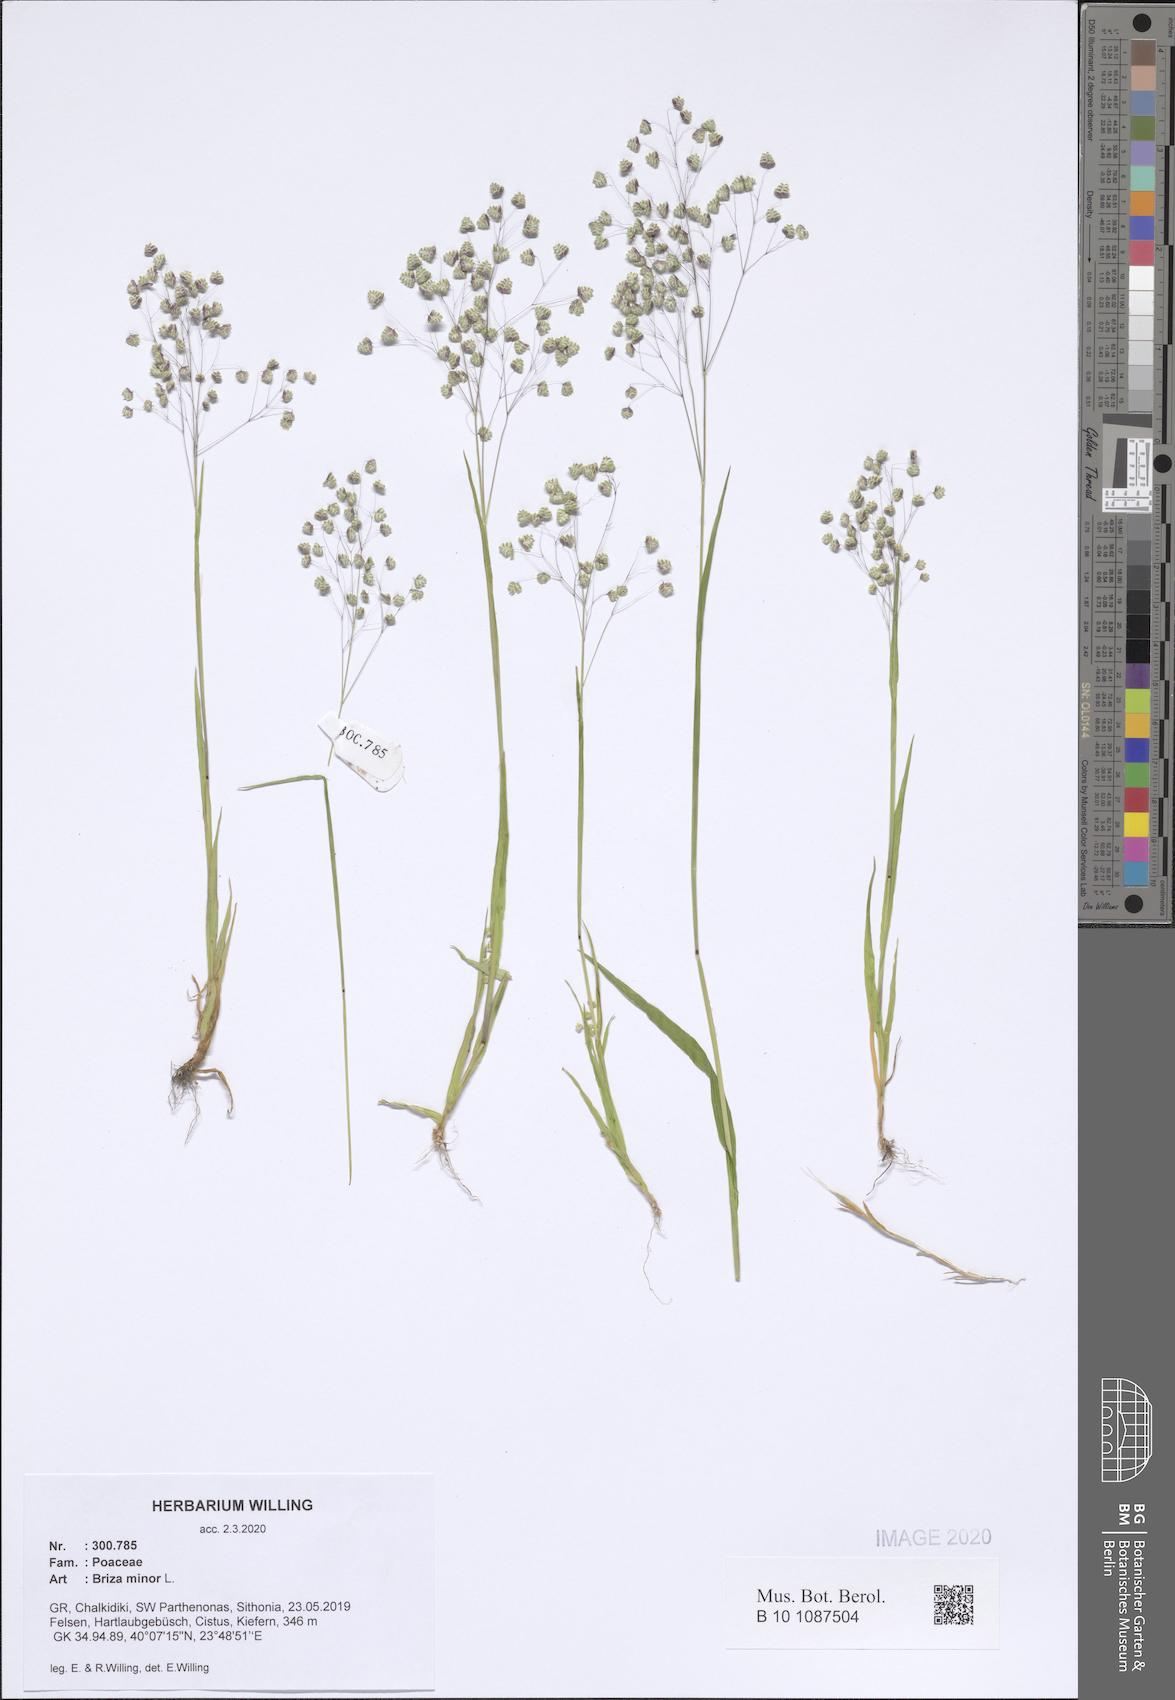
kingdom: Plantae
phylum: Tracheophyta
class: Liliopsida
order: Poales
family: Poaceae
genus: Briza
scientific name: Briza minor
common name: Lesser quaking-grass
